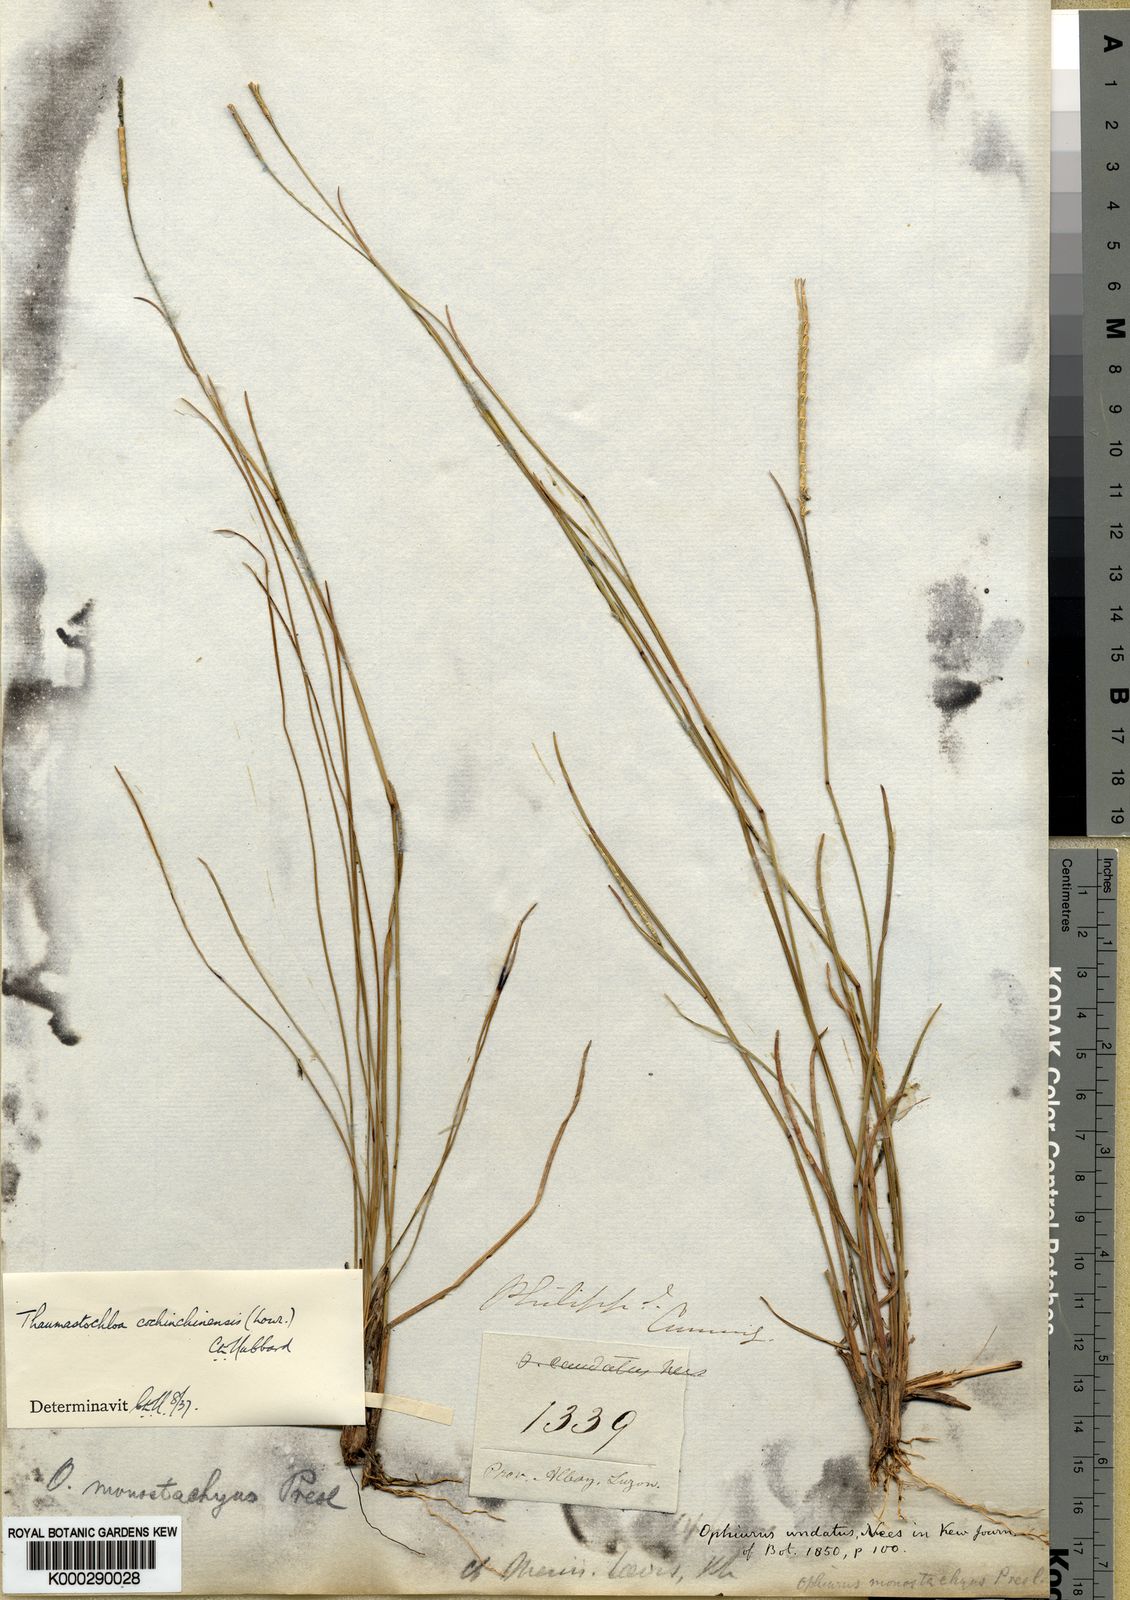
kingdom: Plantae
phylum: Tracheophyta
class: Liliopsida
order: Poales
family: Poaceae
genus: Mnesithea
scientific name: Mnesithea laevis
